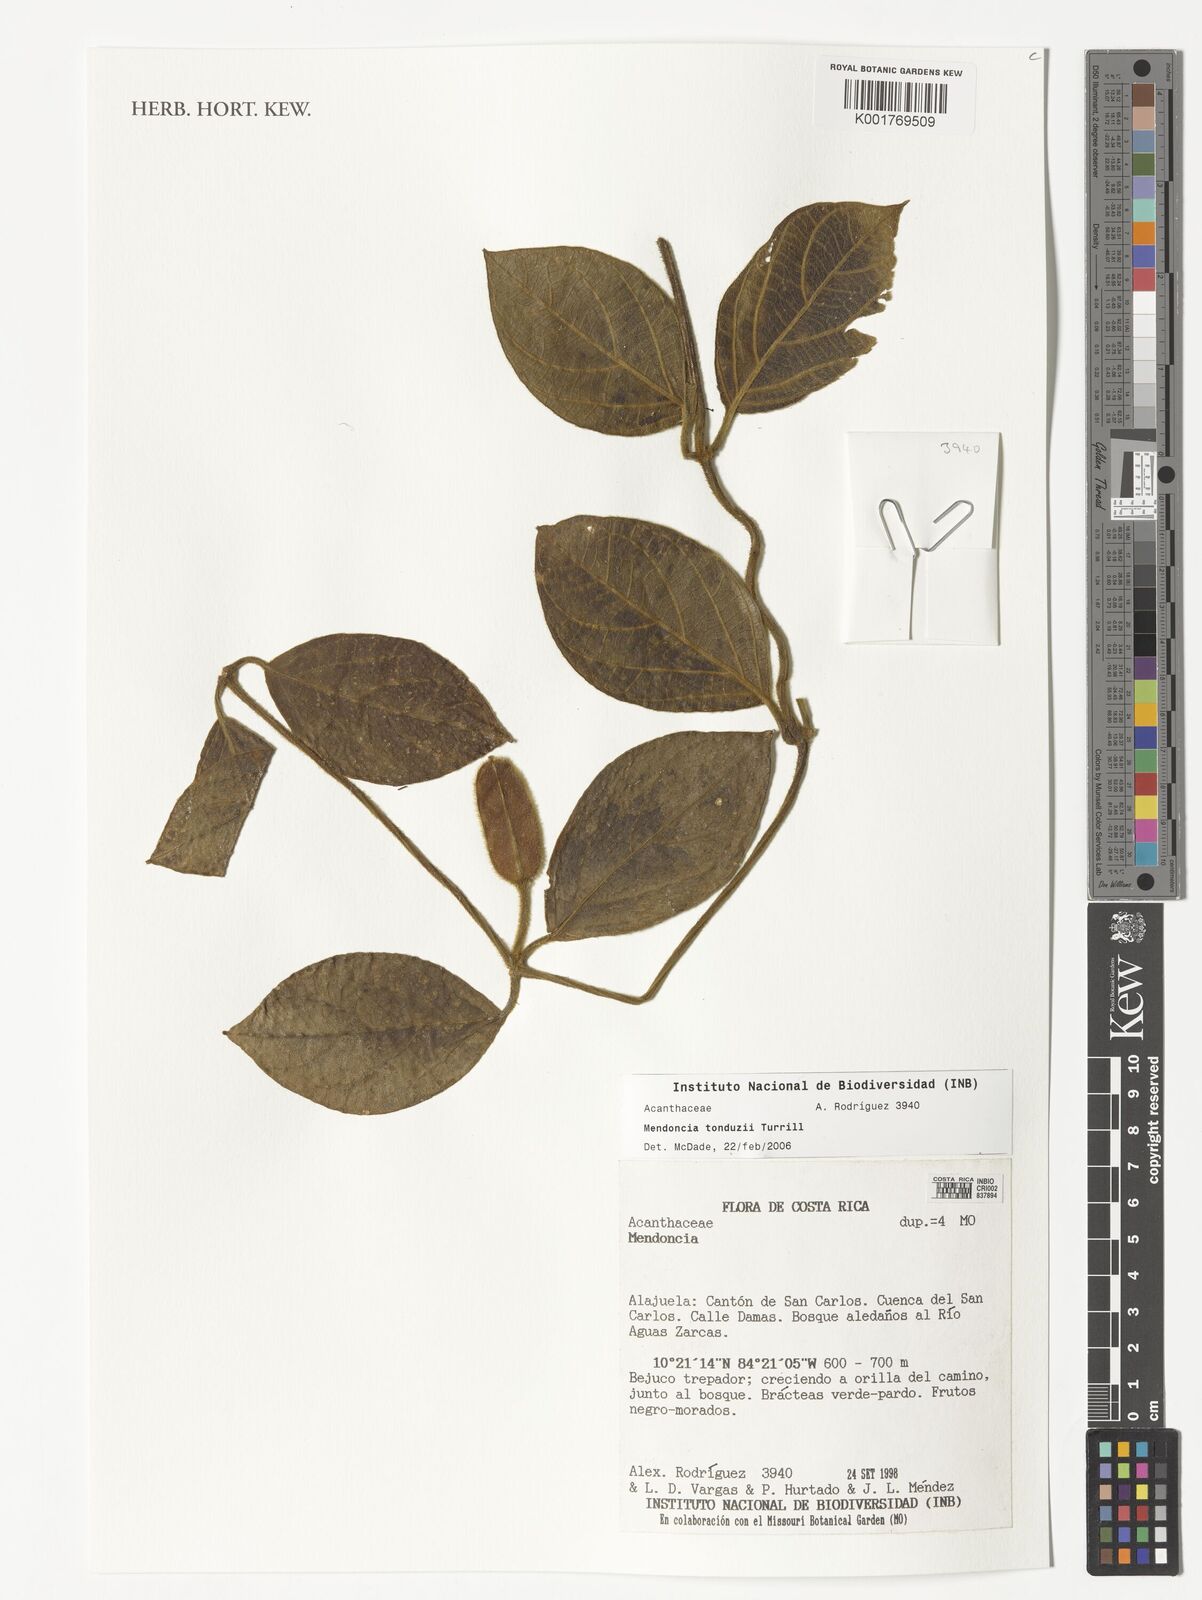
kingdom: Plantae
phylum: Tracheophyta
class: Magnoliopsida
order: Lamiales
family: Acanthaceae
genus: Mendoncia
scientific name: Mendoncia tonduzii
